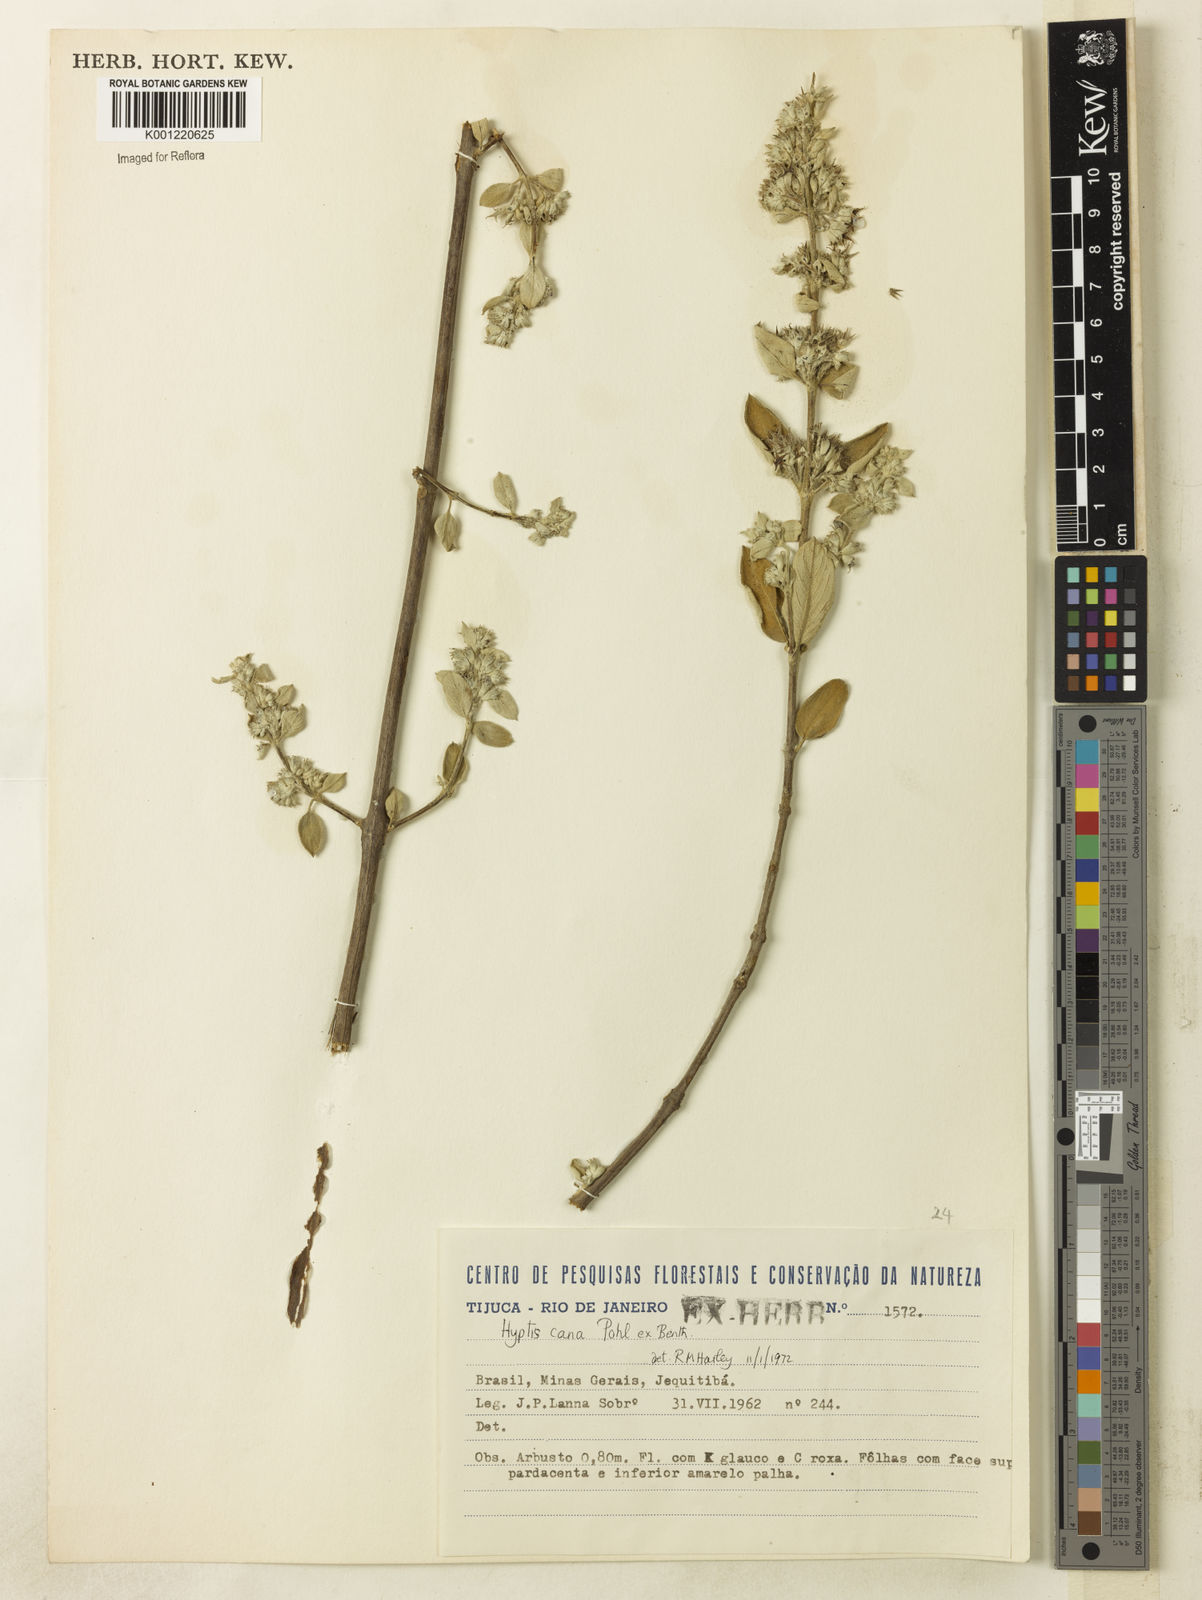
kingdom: Plantae
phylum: Tracheophyta
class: Magnoliopsida
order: Lamiales
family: Lamiaceae
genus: Hyptidendron
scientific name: Hyptidendron canum
